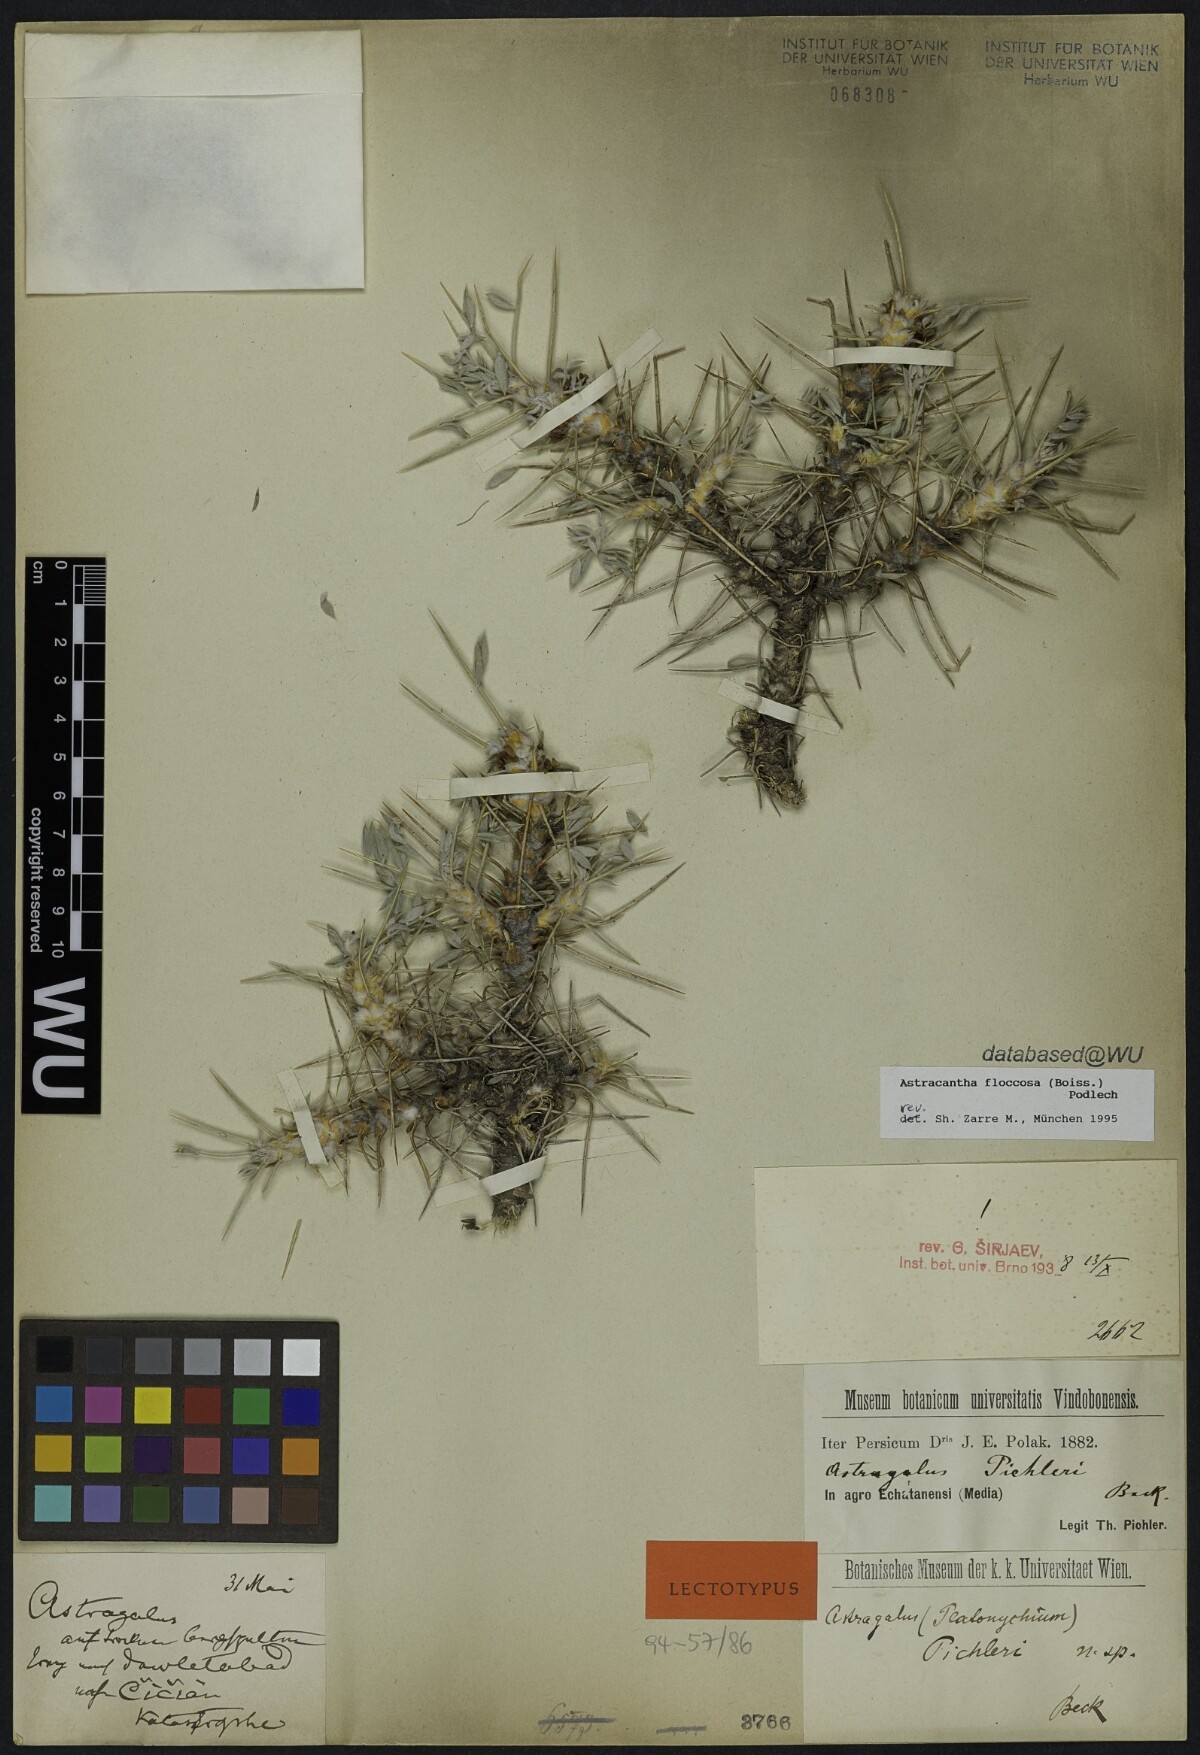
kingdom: Plantae
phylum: Tracheophyta
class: Magnoliopsida
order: Fabales
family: Fabaceae
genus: Astragalus
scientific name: Astragalus floccosus
